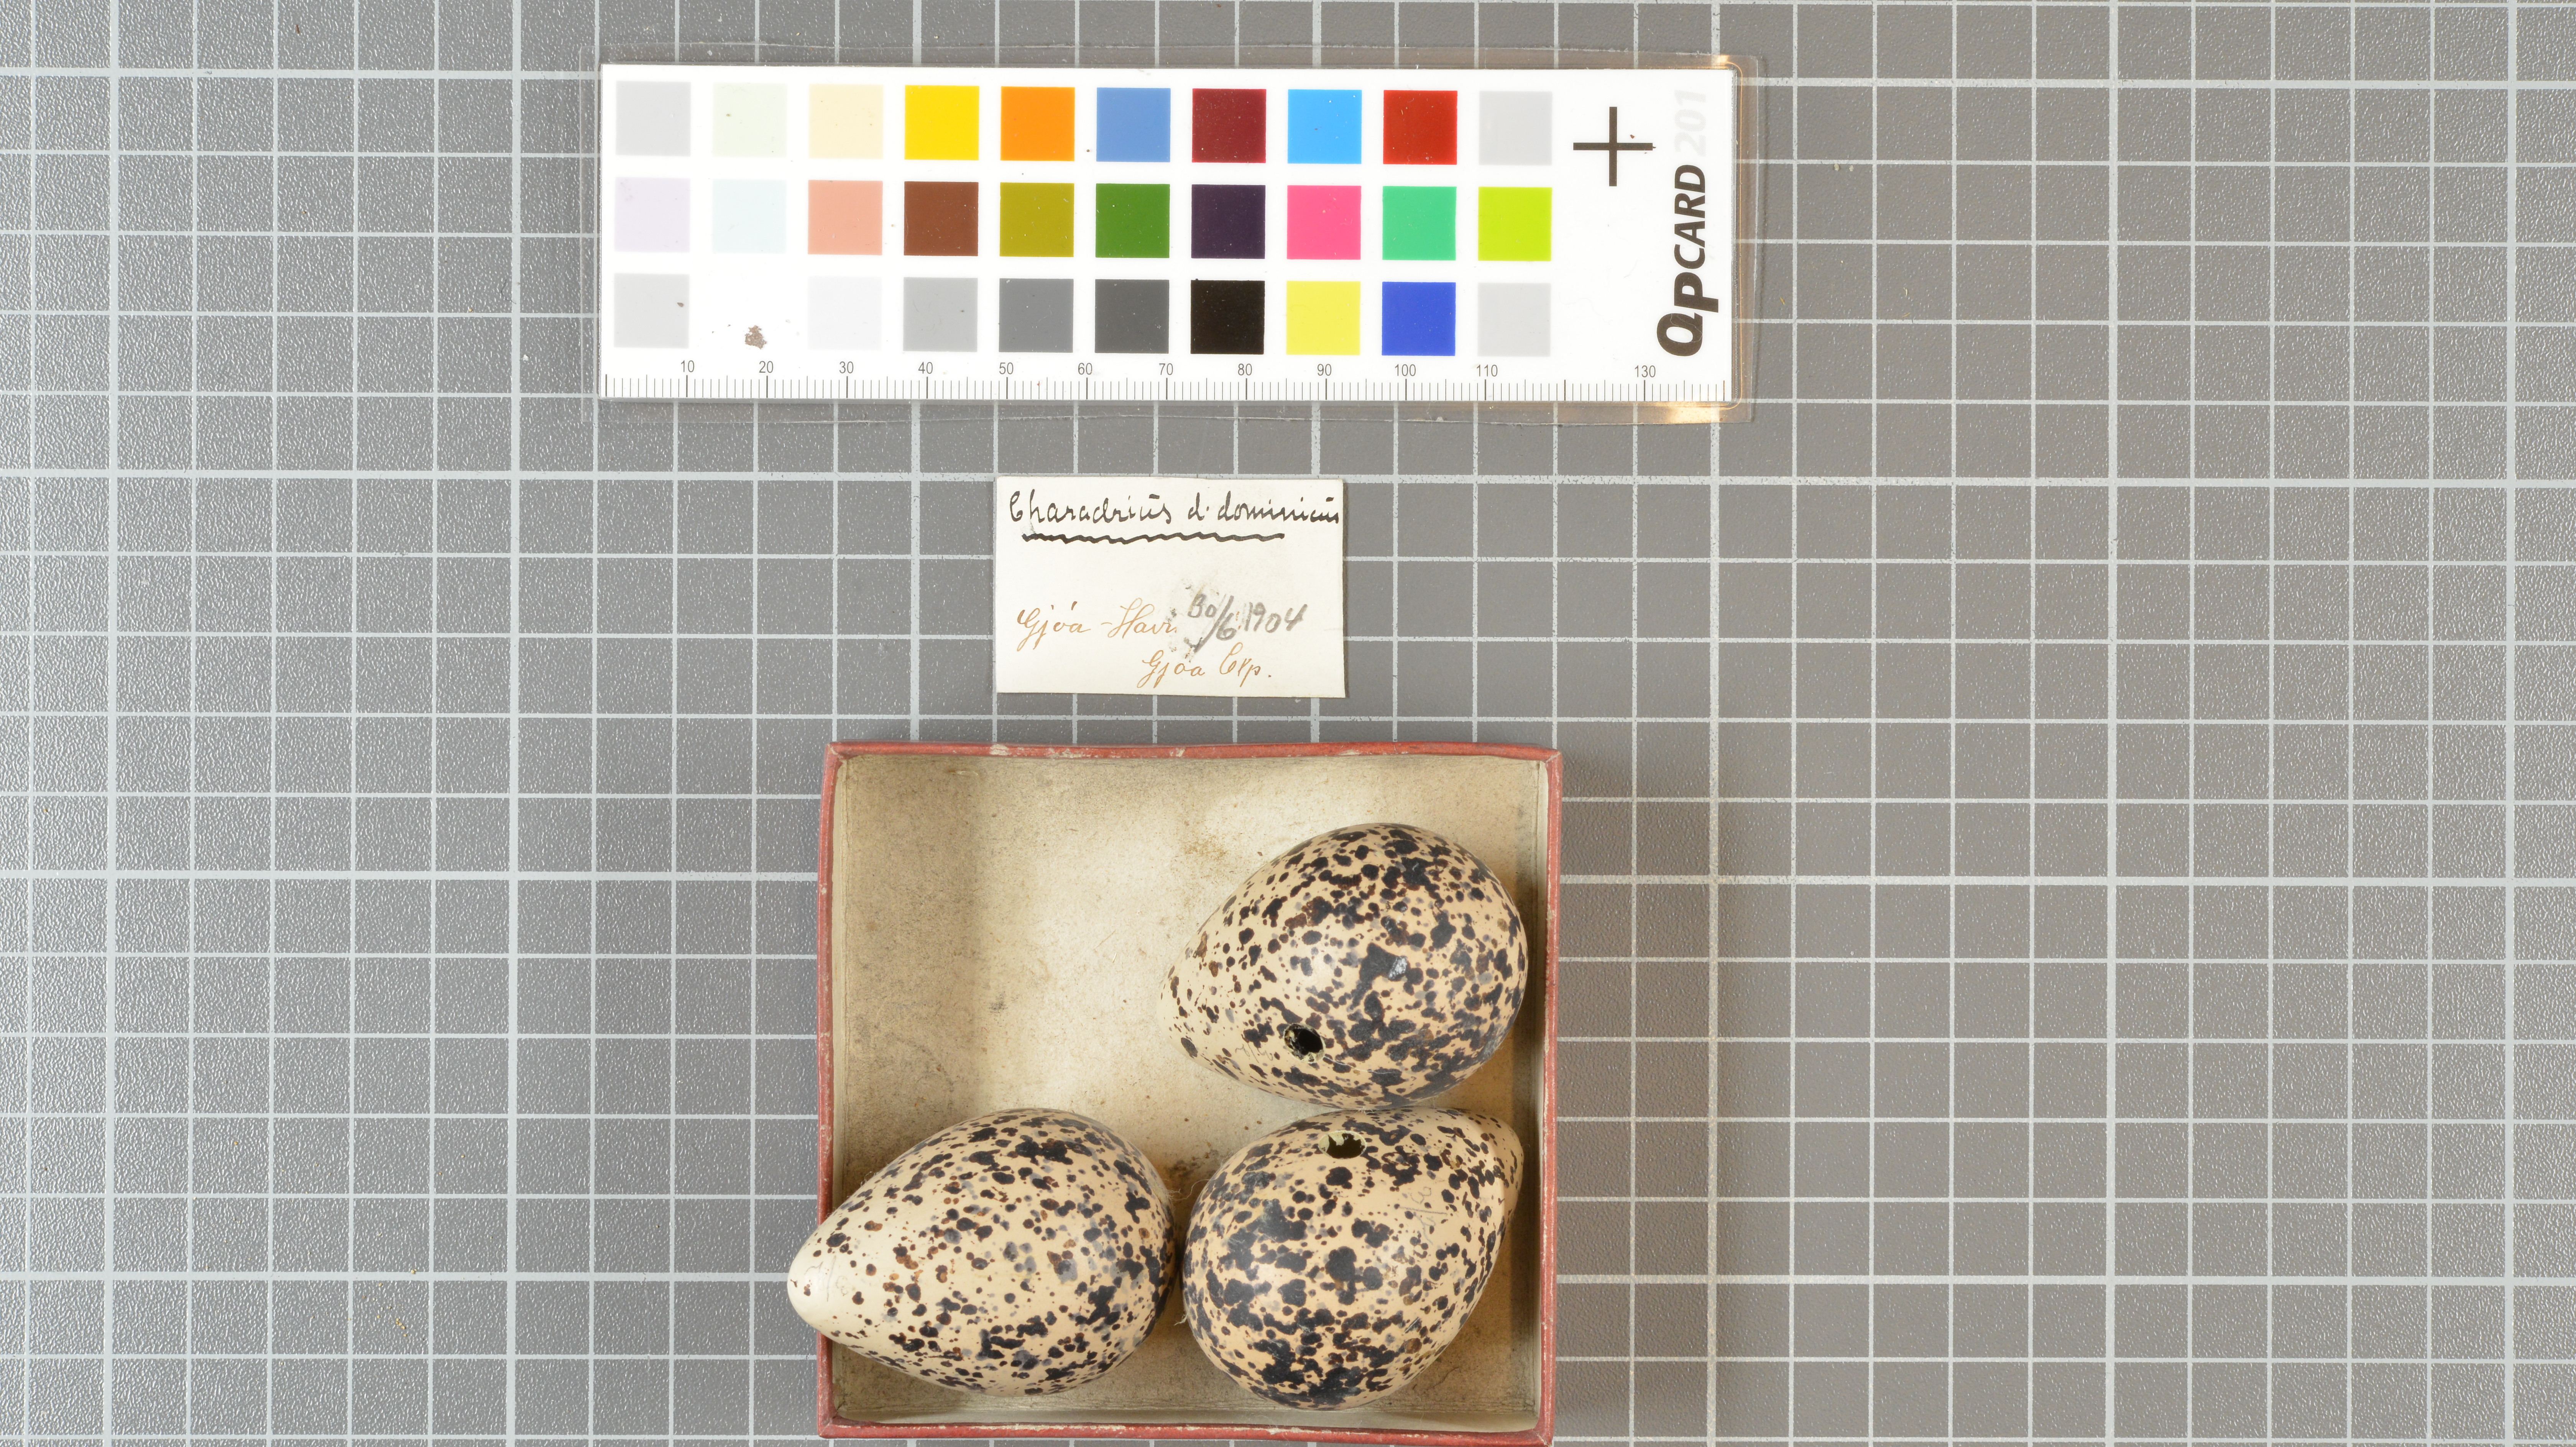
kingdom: Animalia
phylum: Chordata
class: Aves
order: Charadriiformes
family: Charadriidae
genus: Pluvialis
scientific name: Pluvialis dominica
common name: American golden plover
